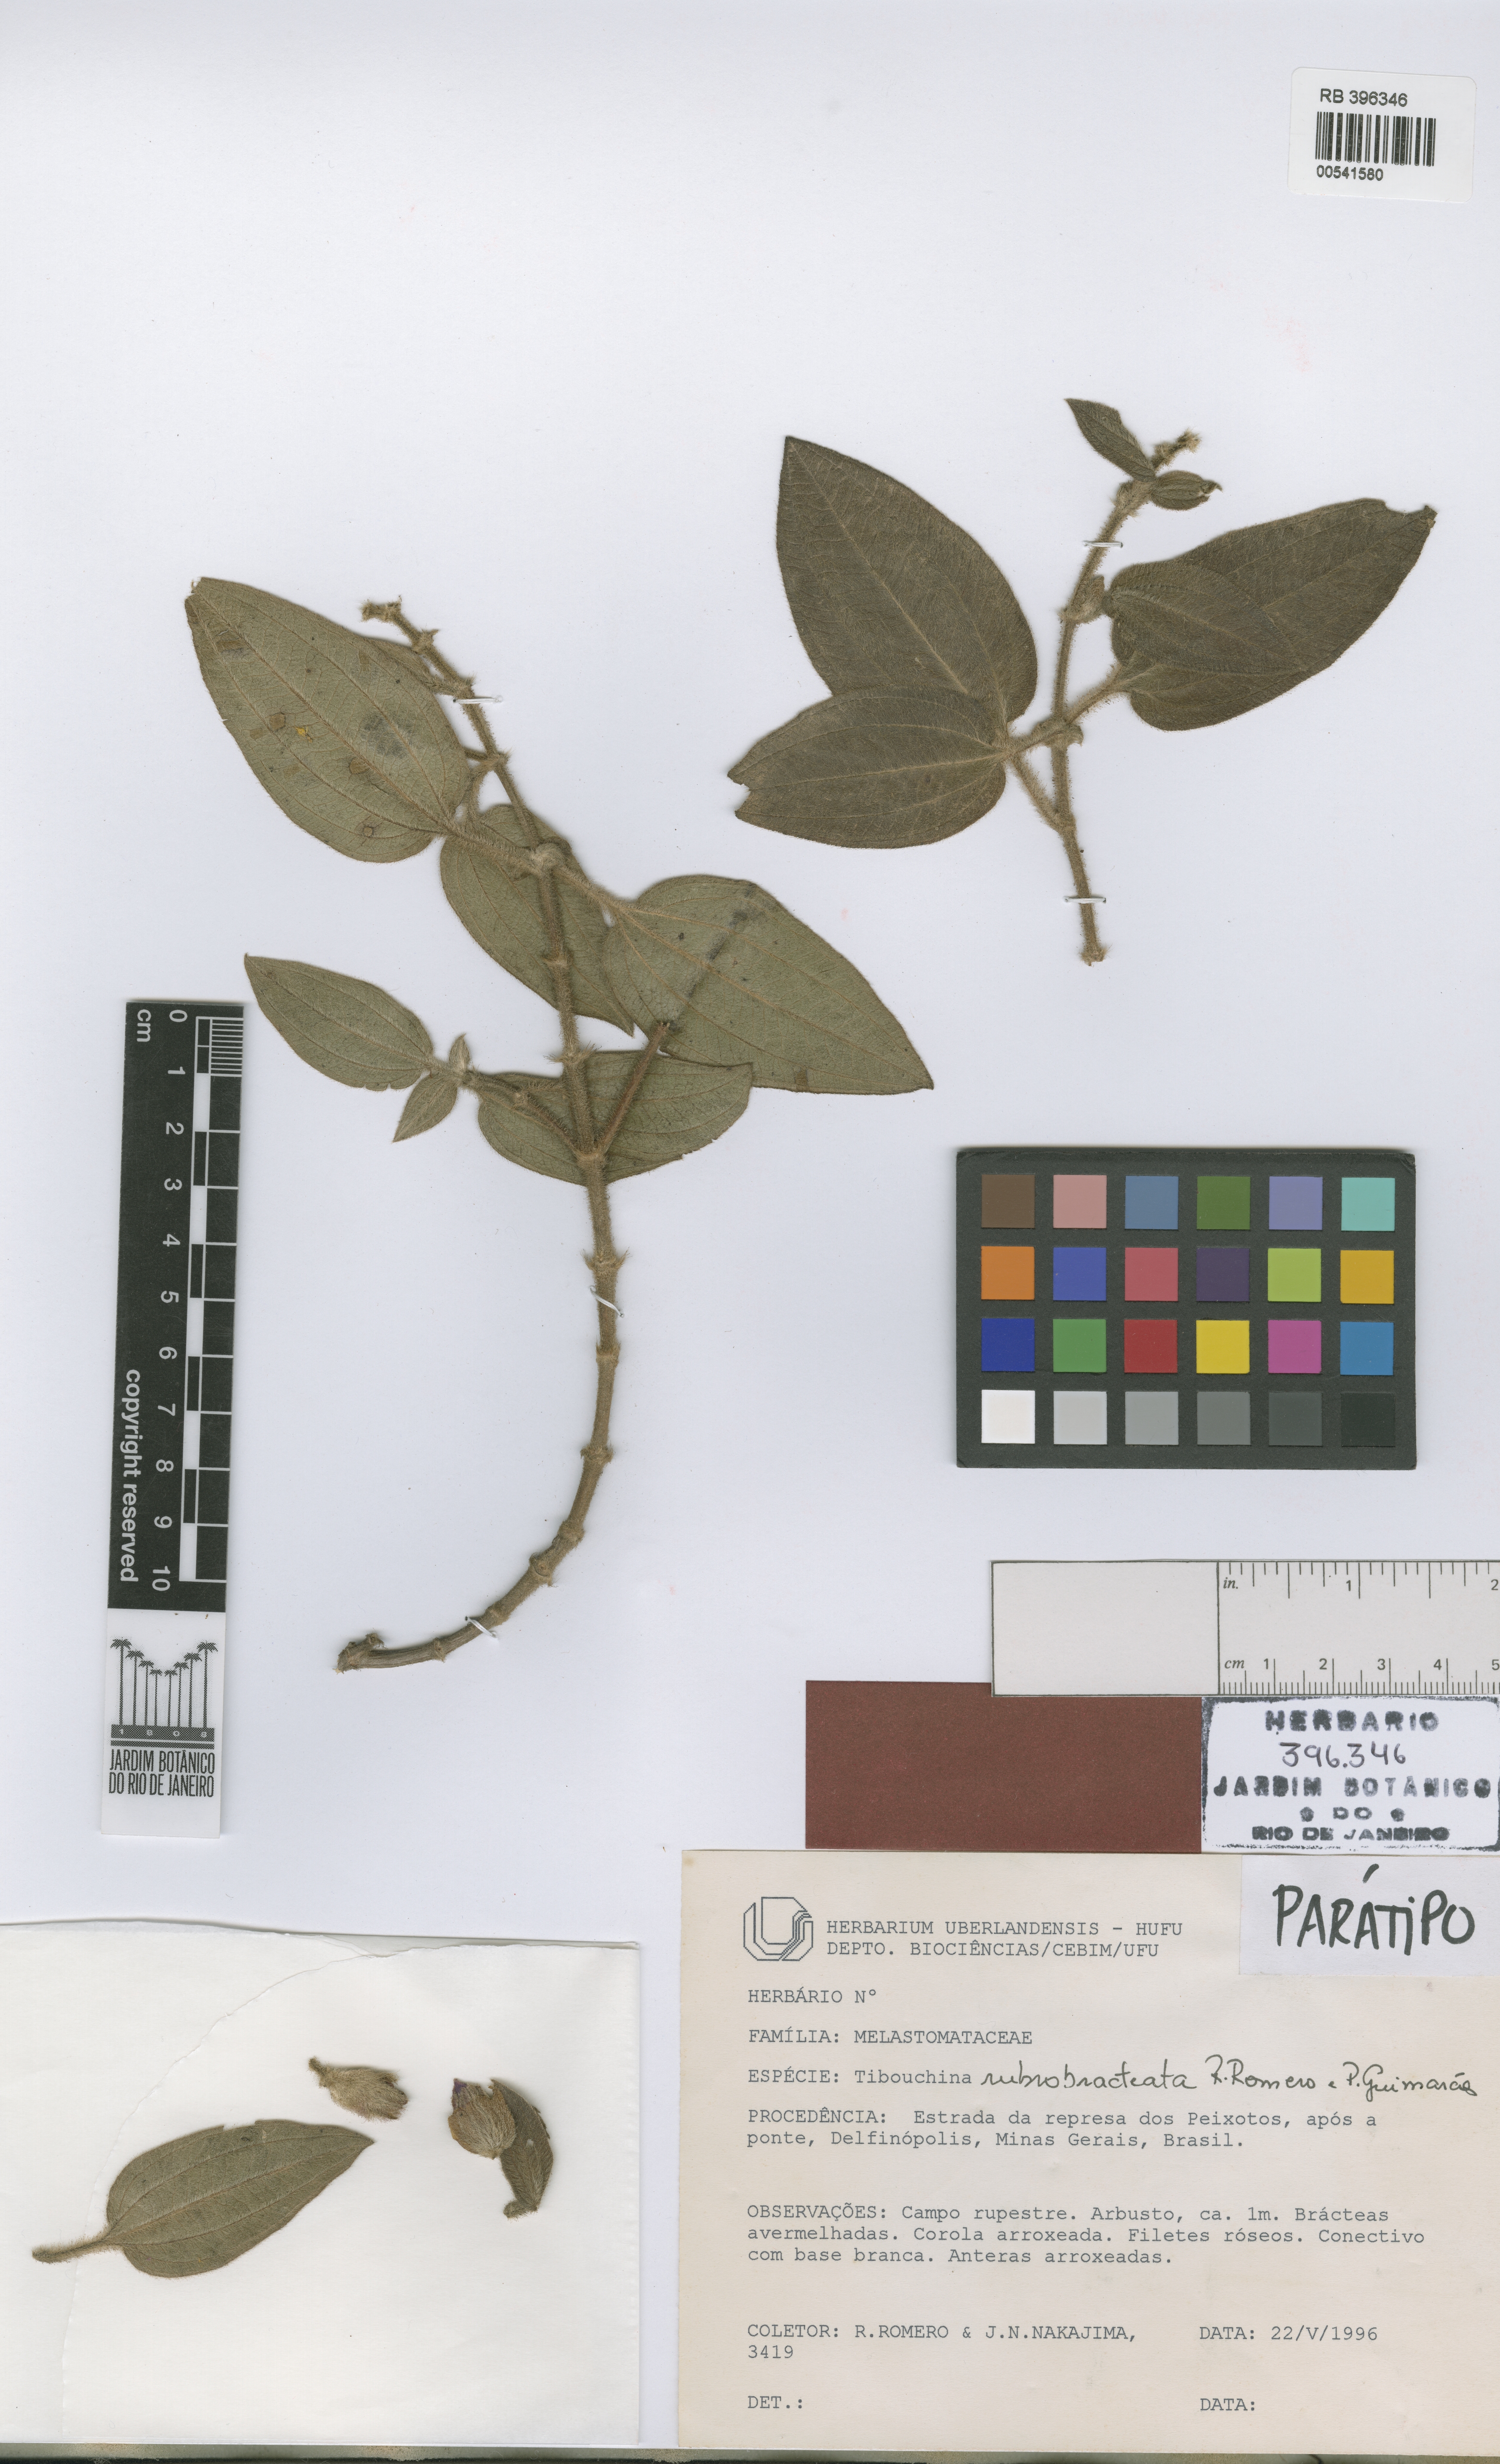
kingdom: Plantae
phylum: Tracheophyta
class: Magnoliopsida
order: Myrtales
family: Melastomataceae
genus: Pleroma
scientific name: Pleroma rubrobracteatum
